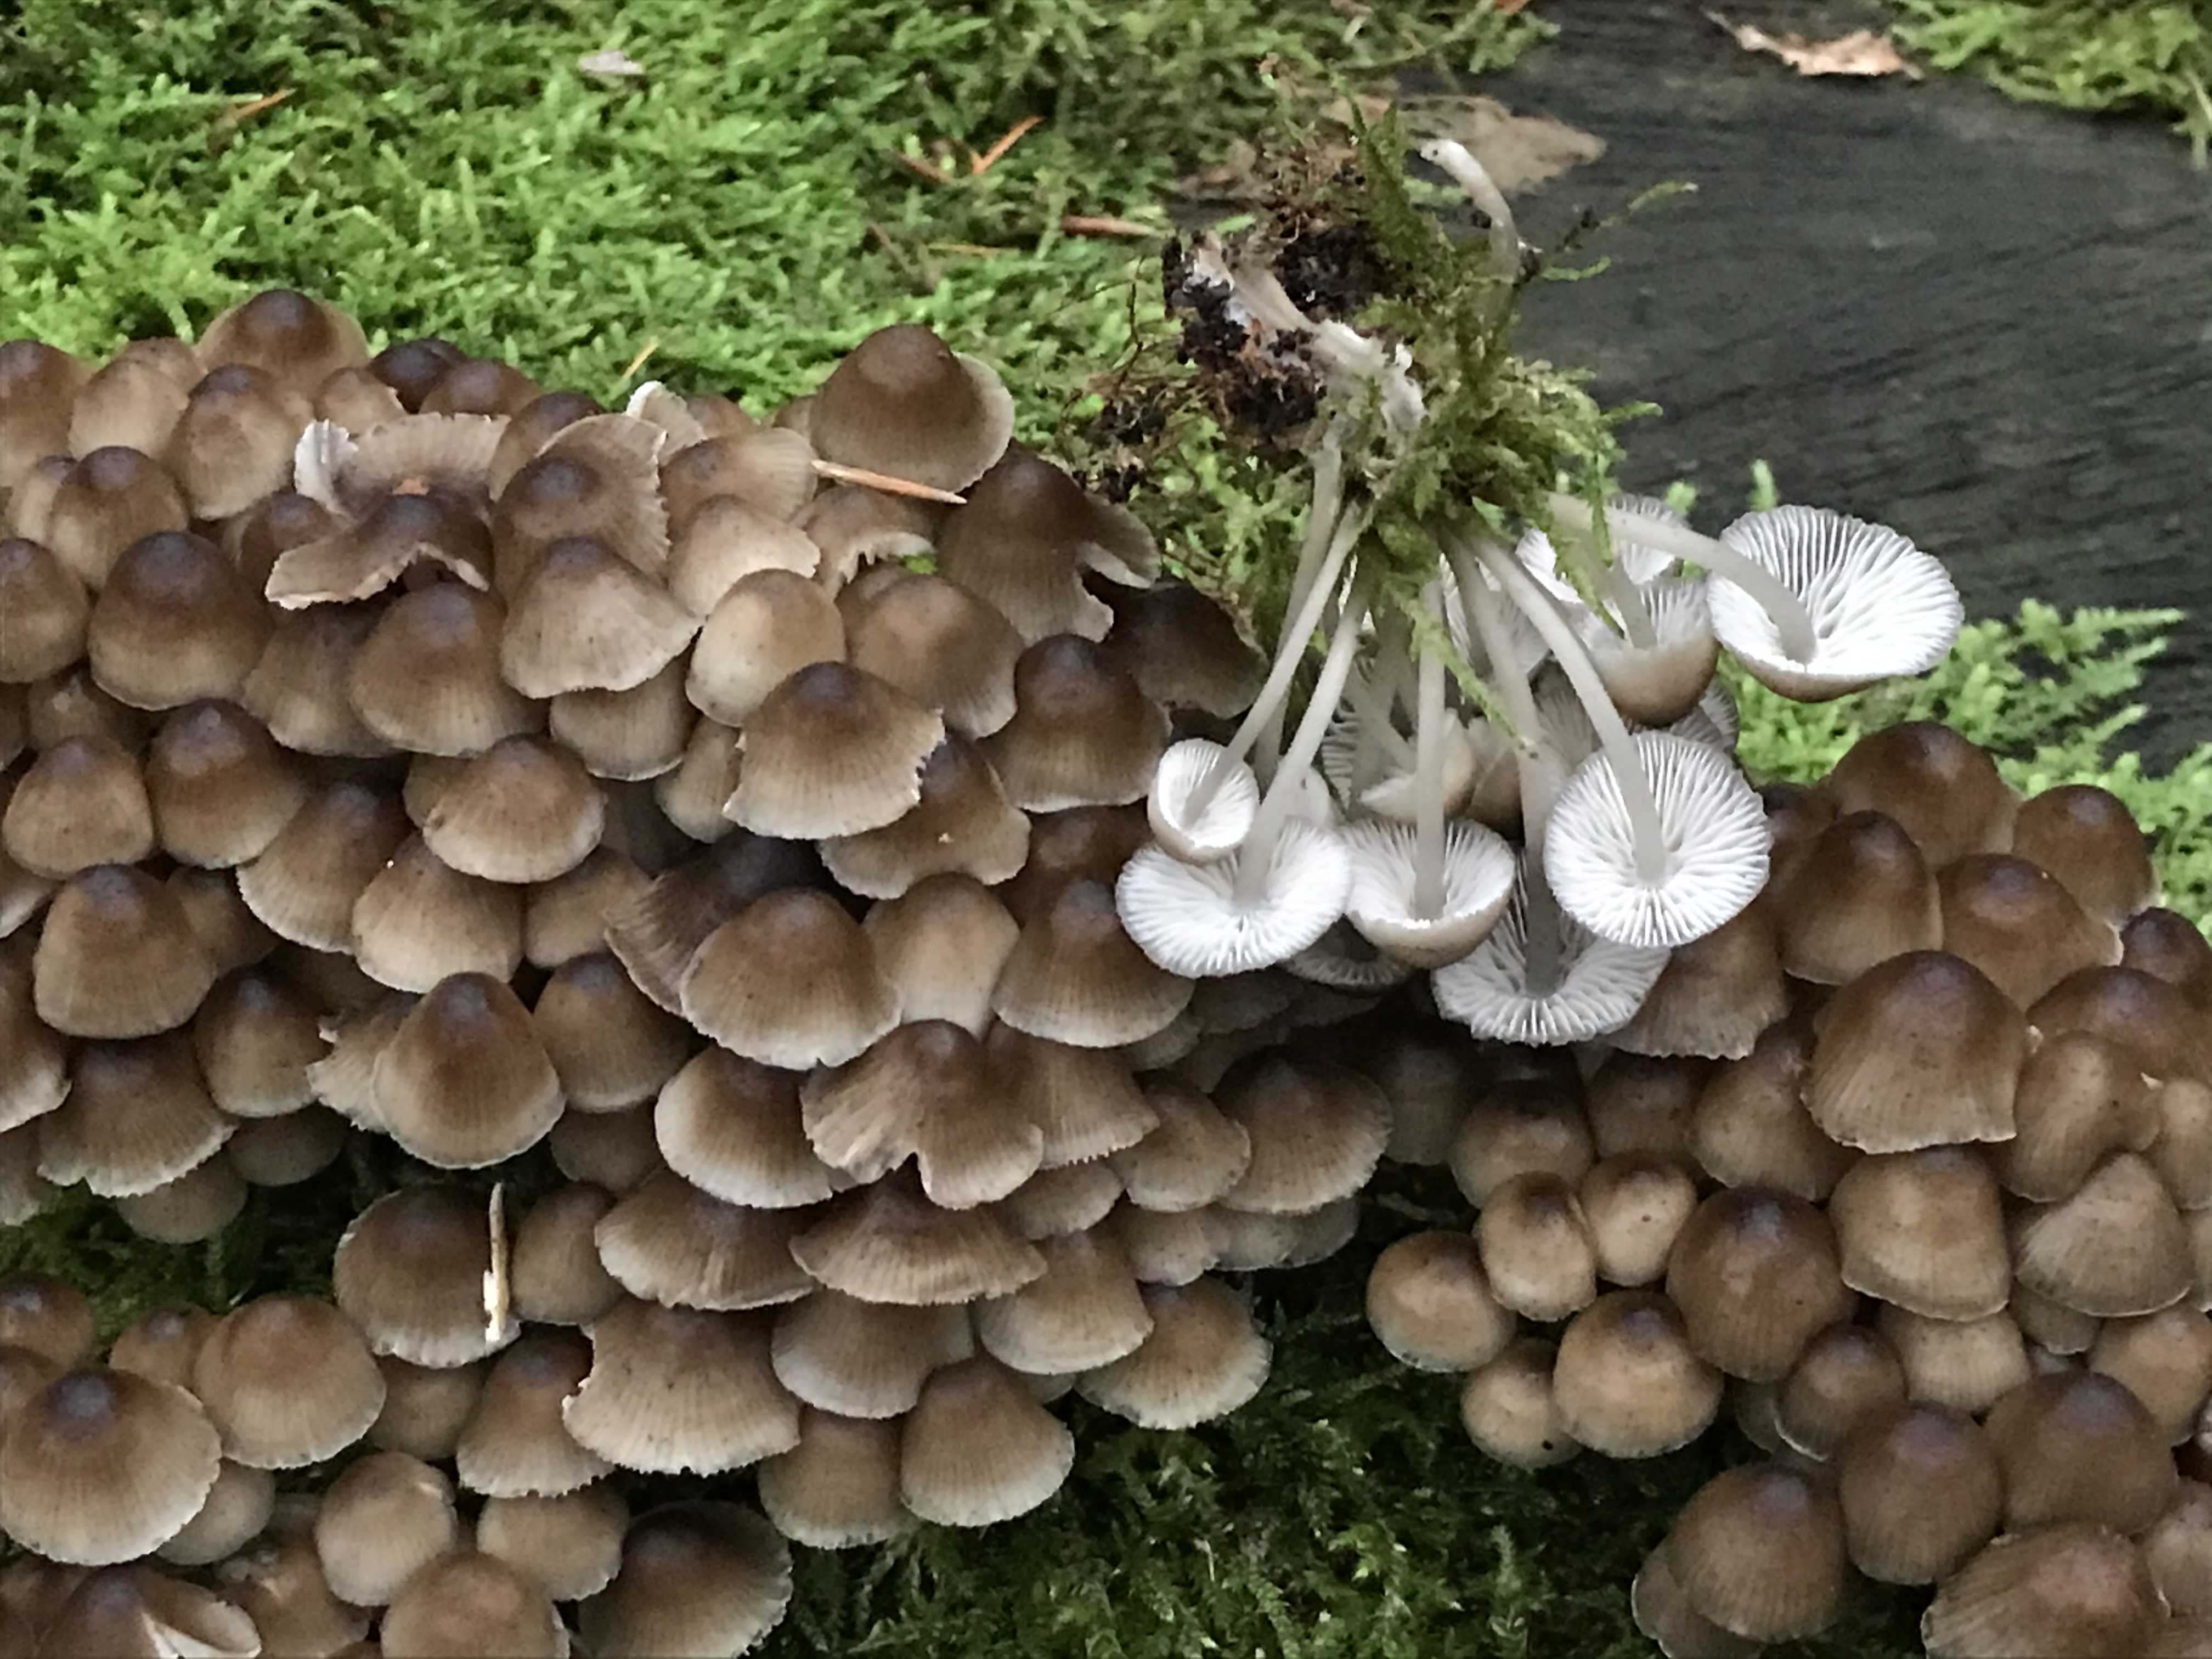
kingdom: Fungi
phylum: Basidiomycota
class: Agaricomycetes
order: Agaricales
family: Mycenaceae
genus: Mycena
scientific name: Mycena tintinnabulum
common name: vinter-huesvamp
